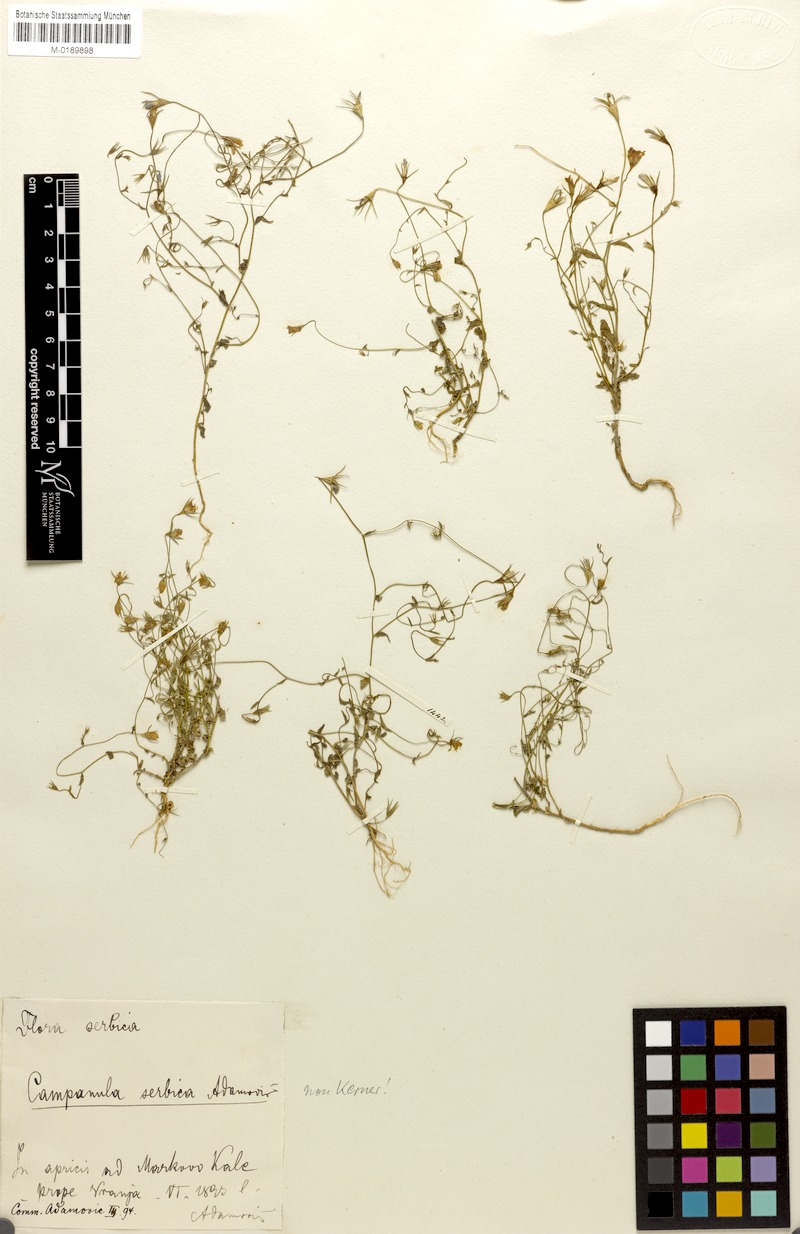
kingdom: Plantae
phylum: Tracheophyta
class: Magnoliopsida
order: Asterales
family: Campanulaceae
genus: Campanula
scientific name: Campanula phrygia
